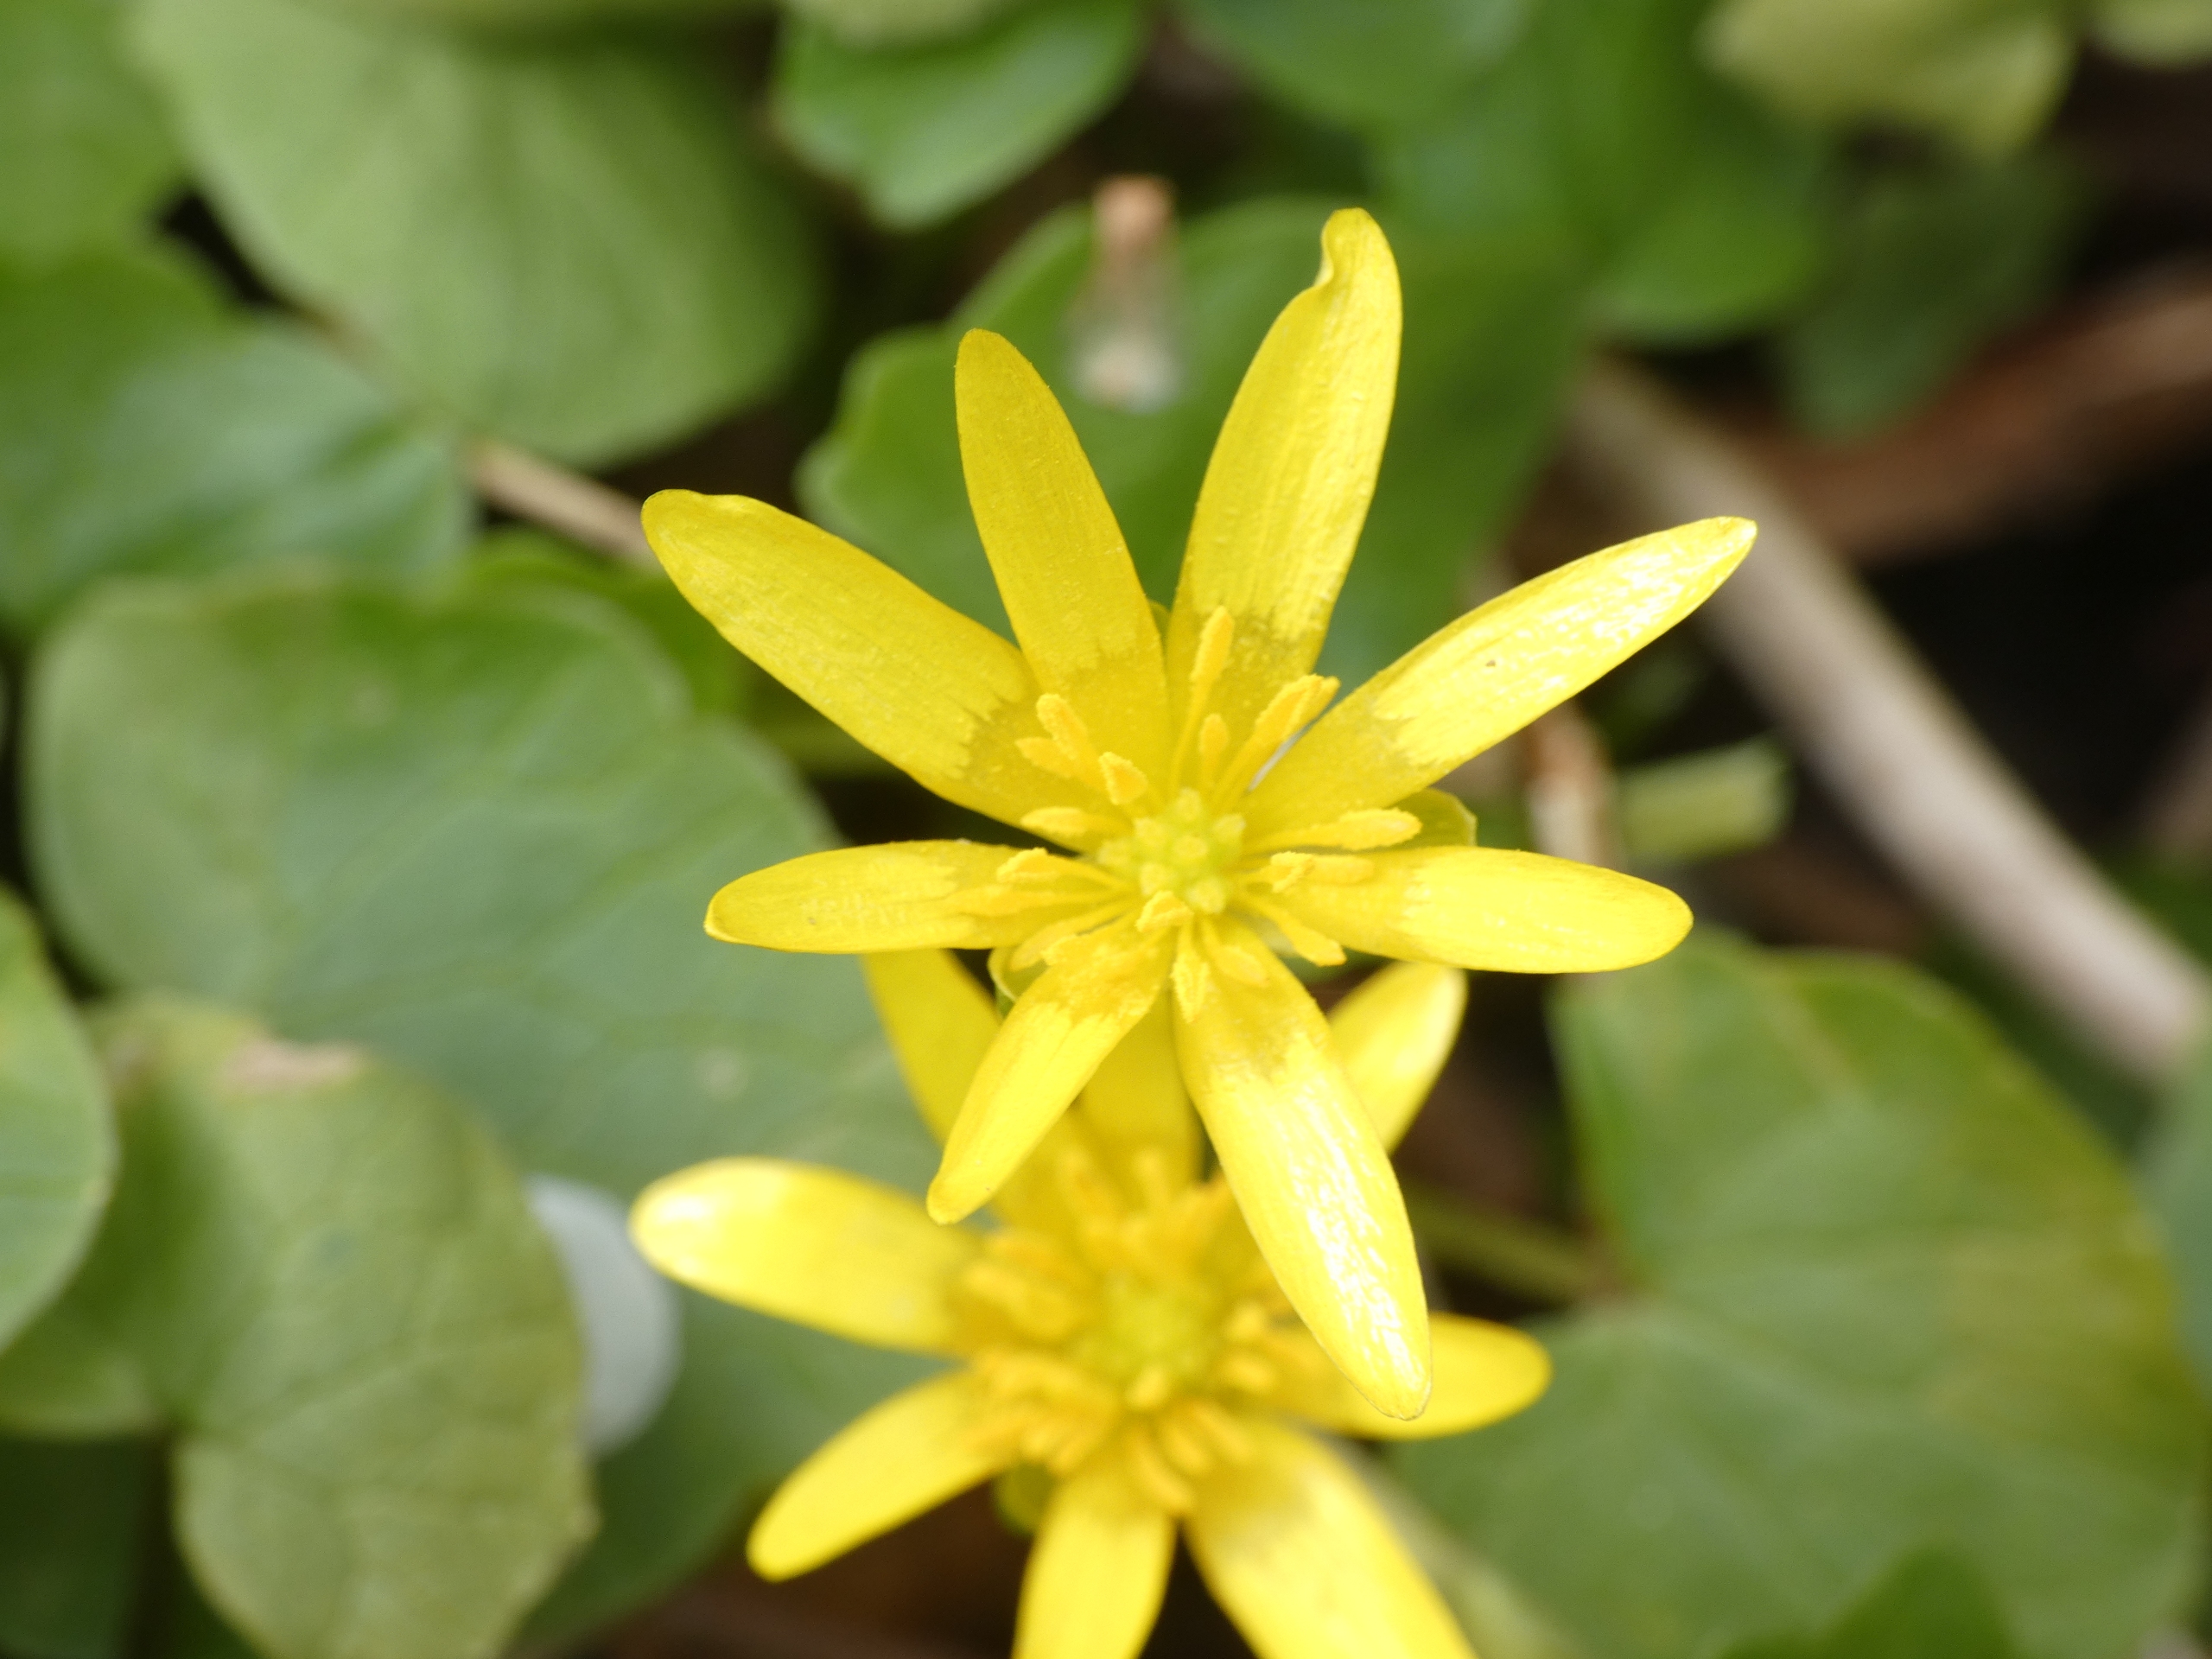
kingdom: Plantae
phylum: Tracheophyta
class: Magnoliopsida
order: Ranunculales
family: Ranunculaceae
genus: Ficaria
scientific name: Ficaria verna
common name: Vorterod
